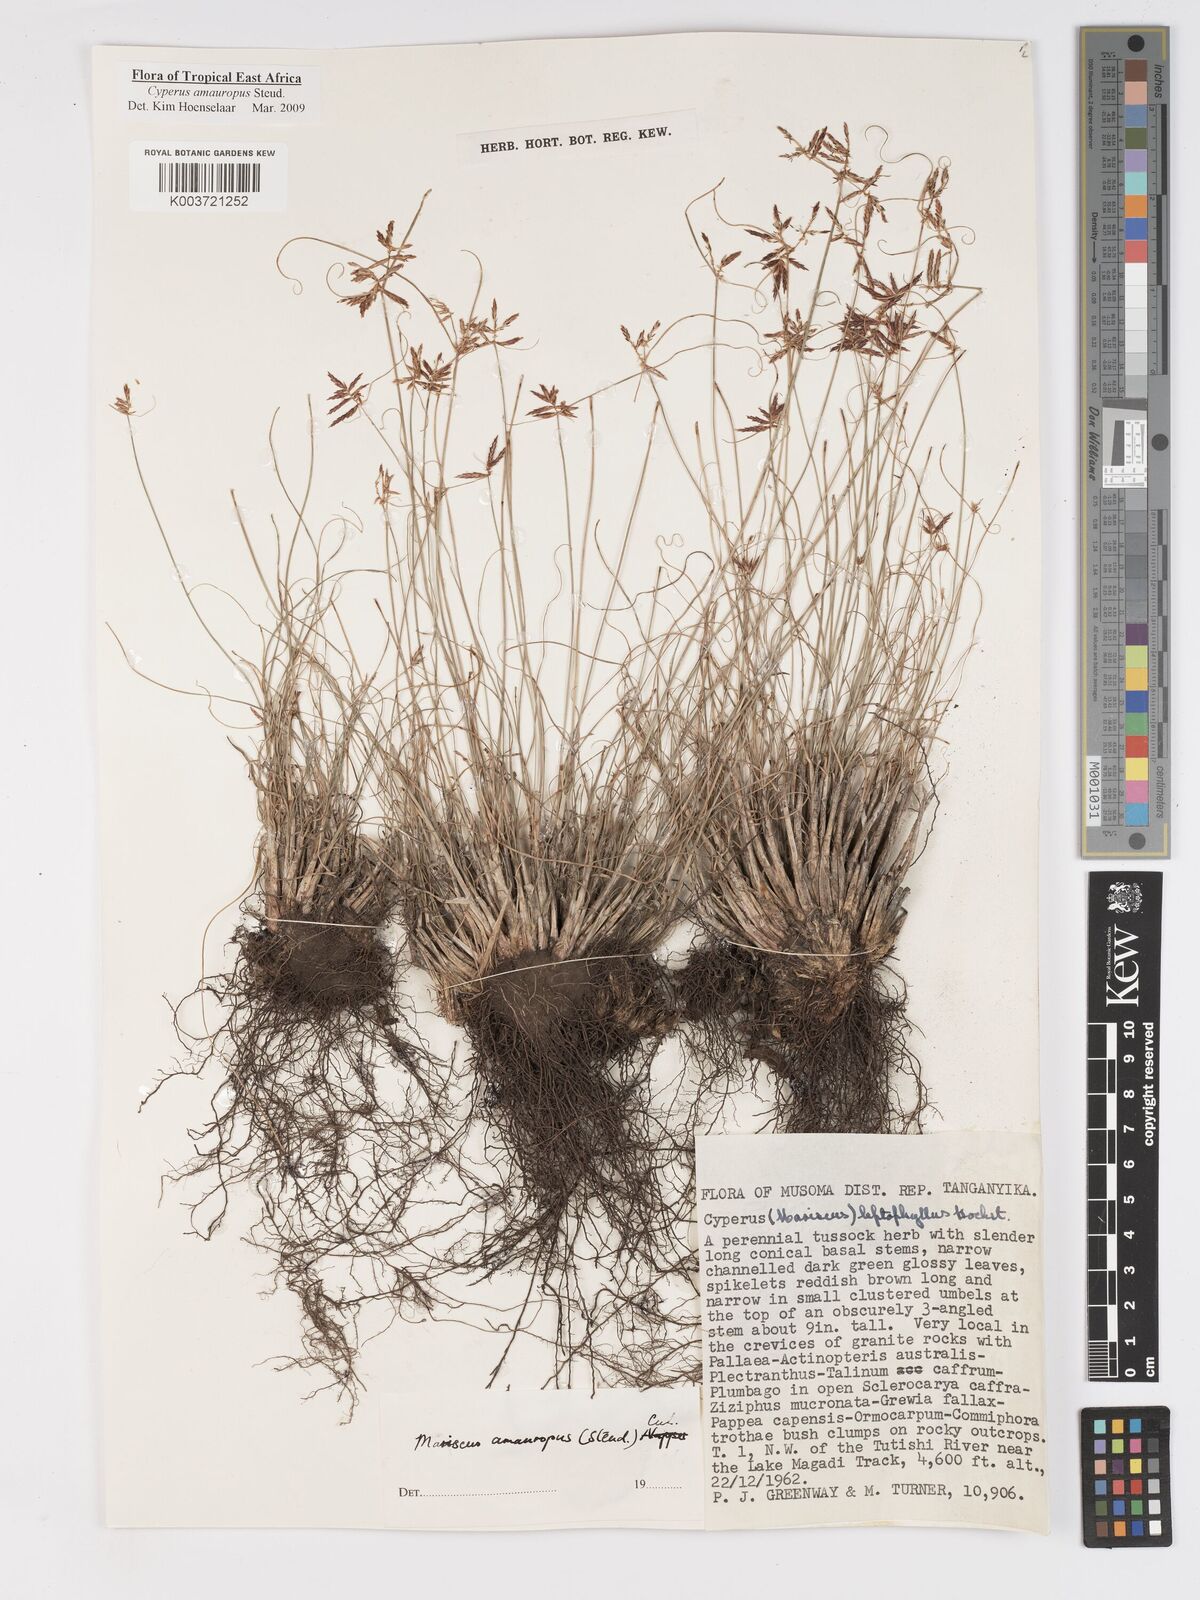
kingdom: Plantae
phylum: Tracheophyta
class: Liliopsida
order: Poales
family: Cyperaceae
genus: Cyperus
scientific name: Cyperus amauropus
